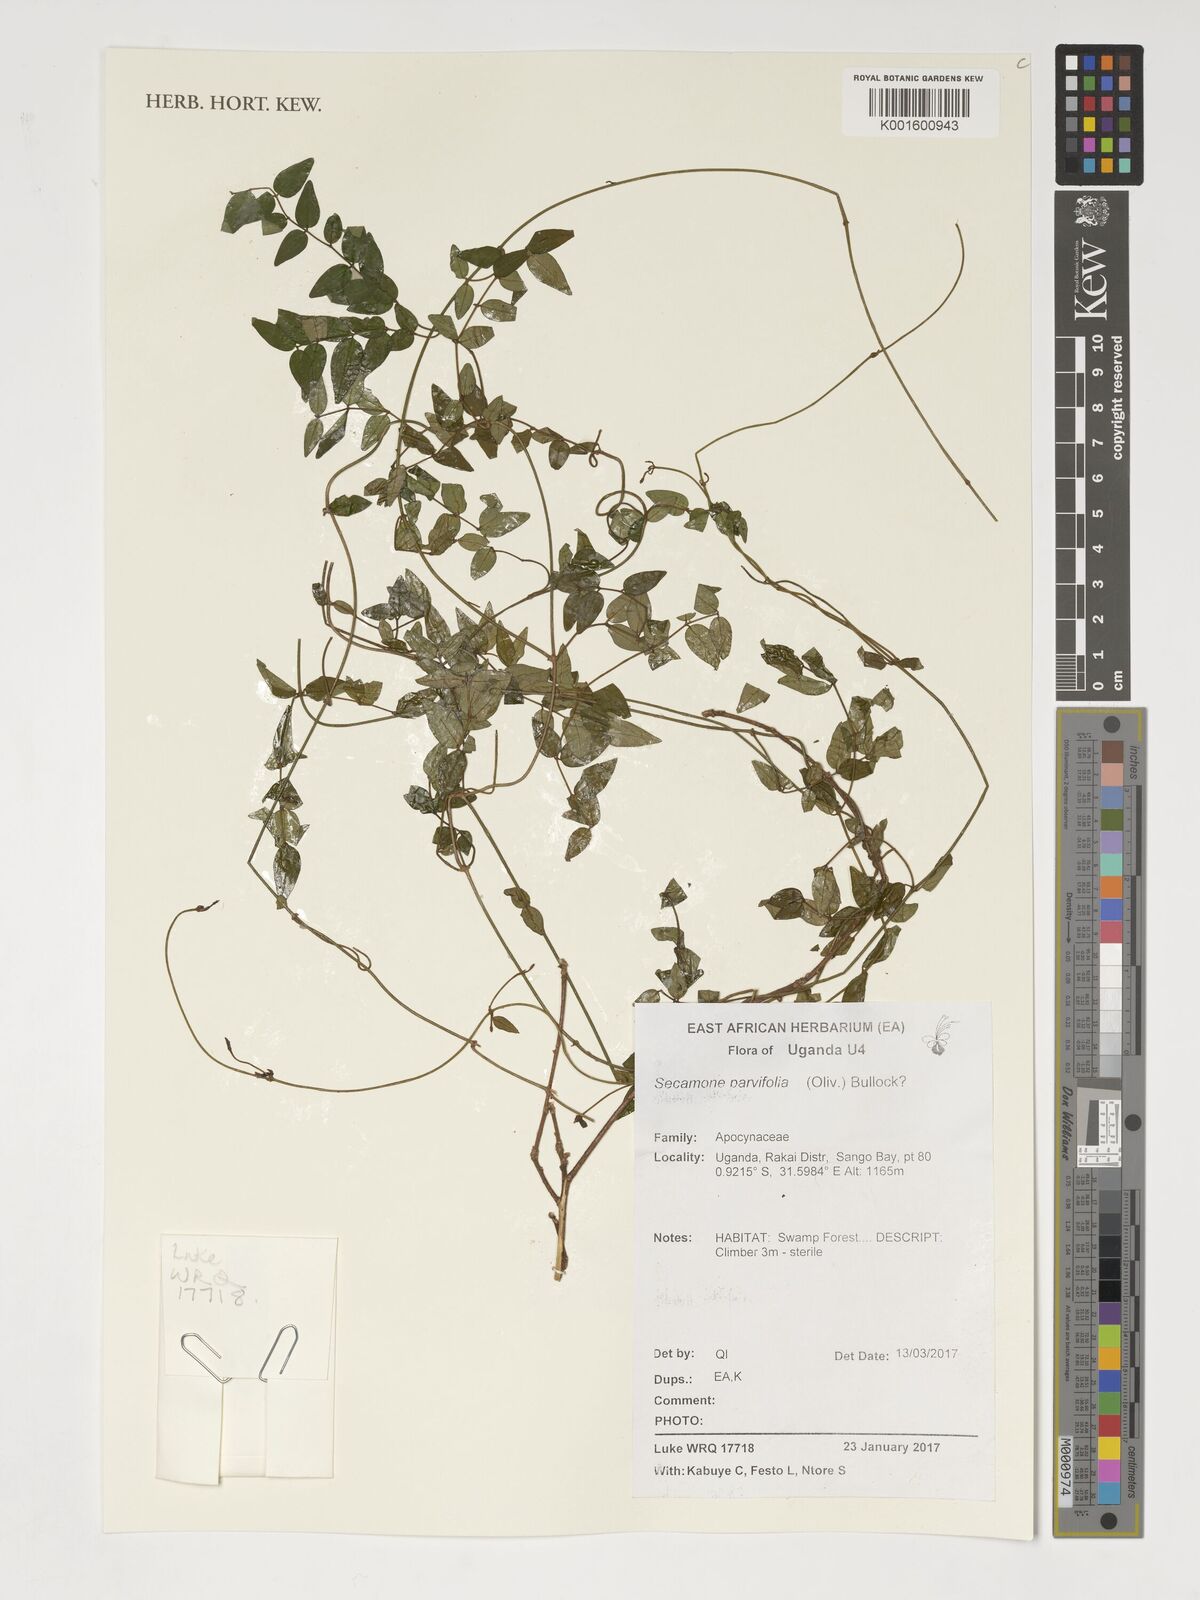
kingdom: Plantae
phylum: Tracheophyta
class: Magnoliopsida
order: Gentianales
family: Apocynaceae
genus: Secamone
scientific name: Secamone schweinfurthii
